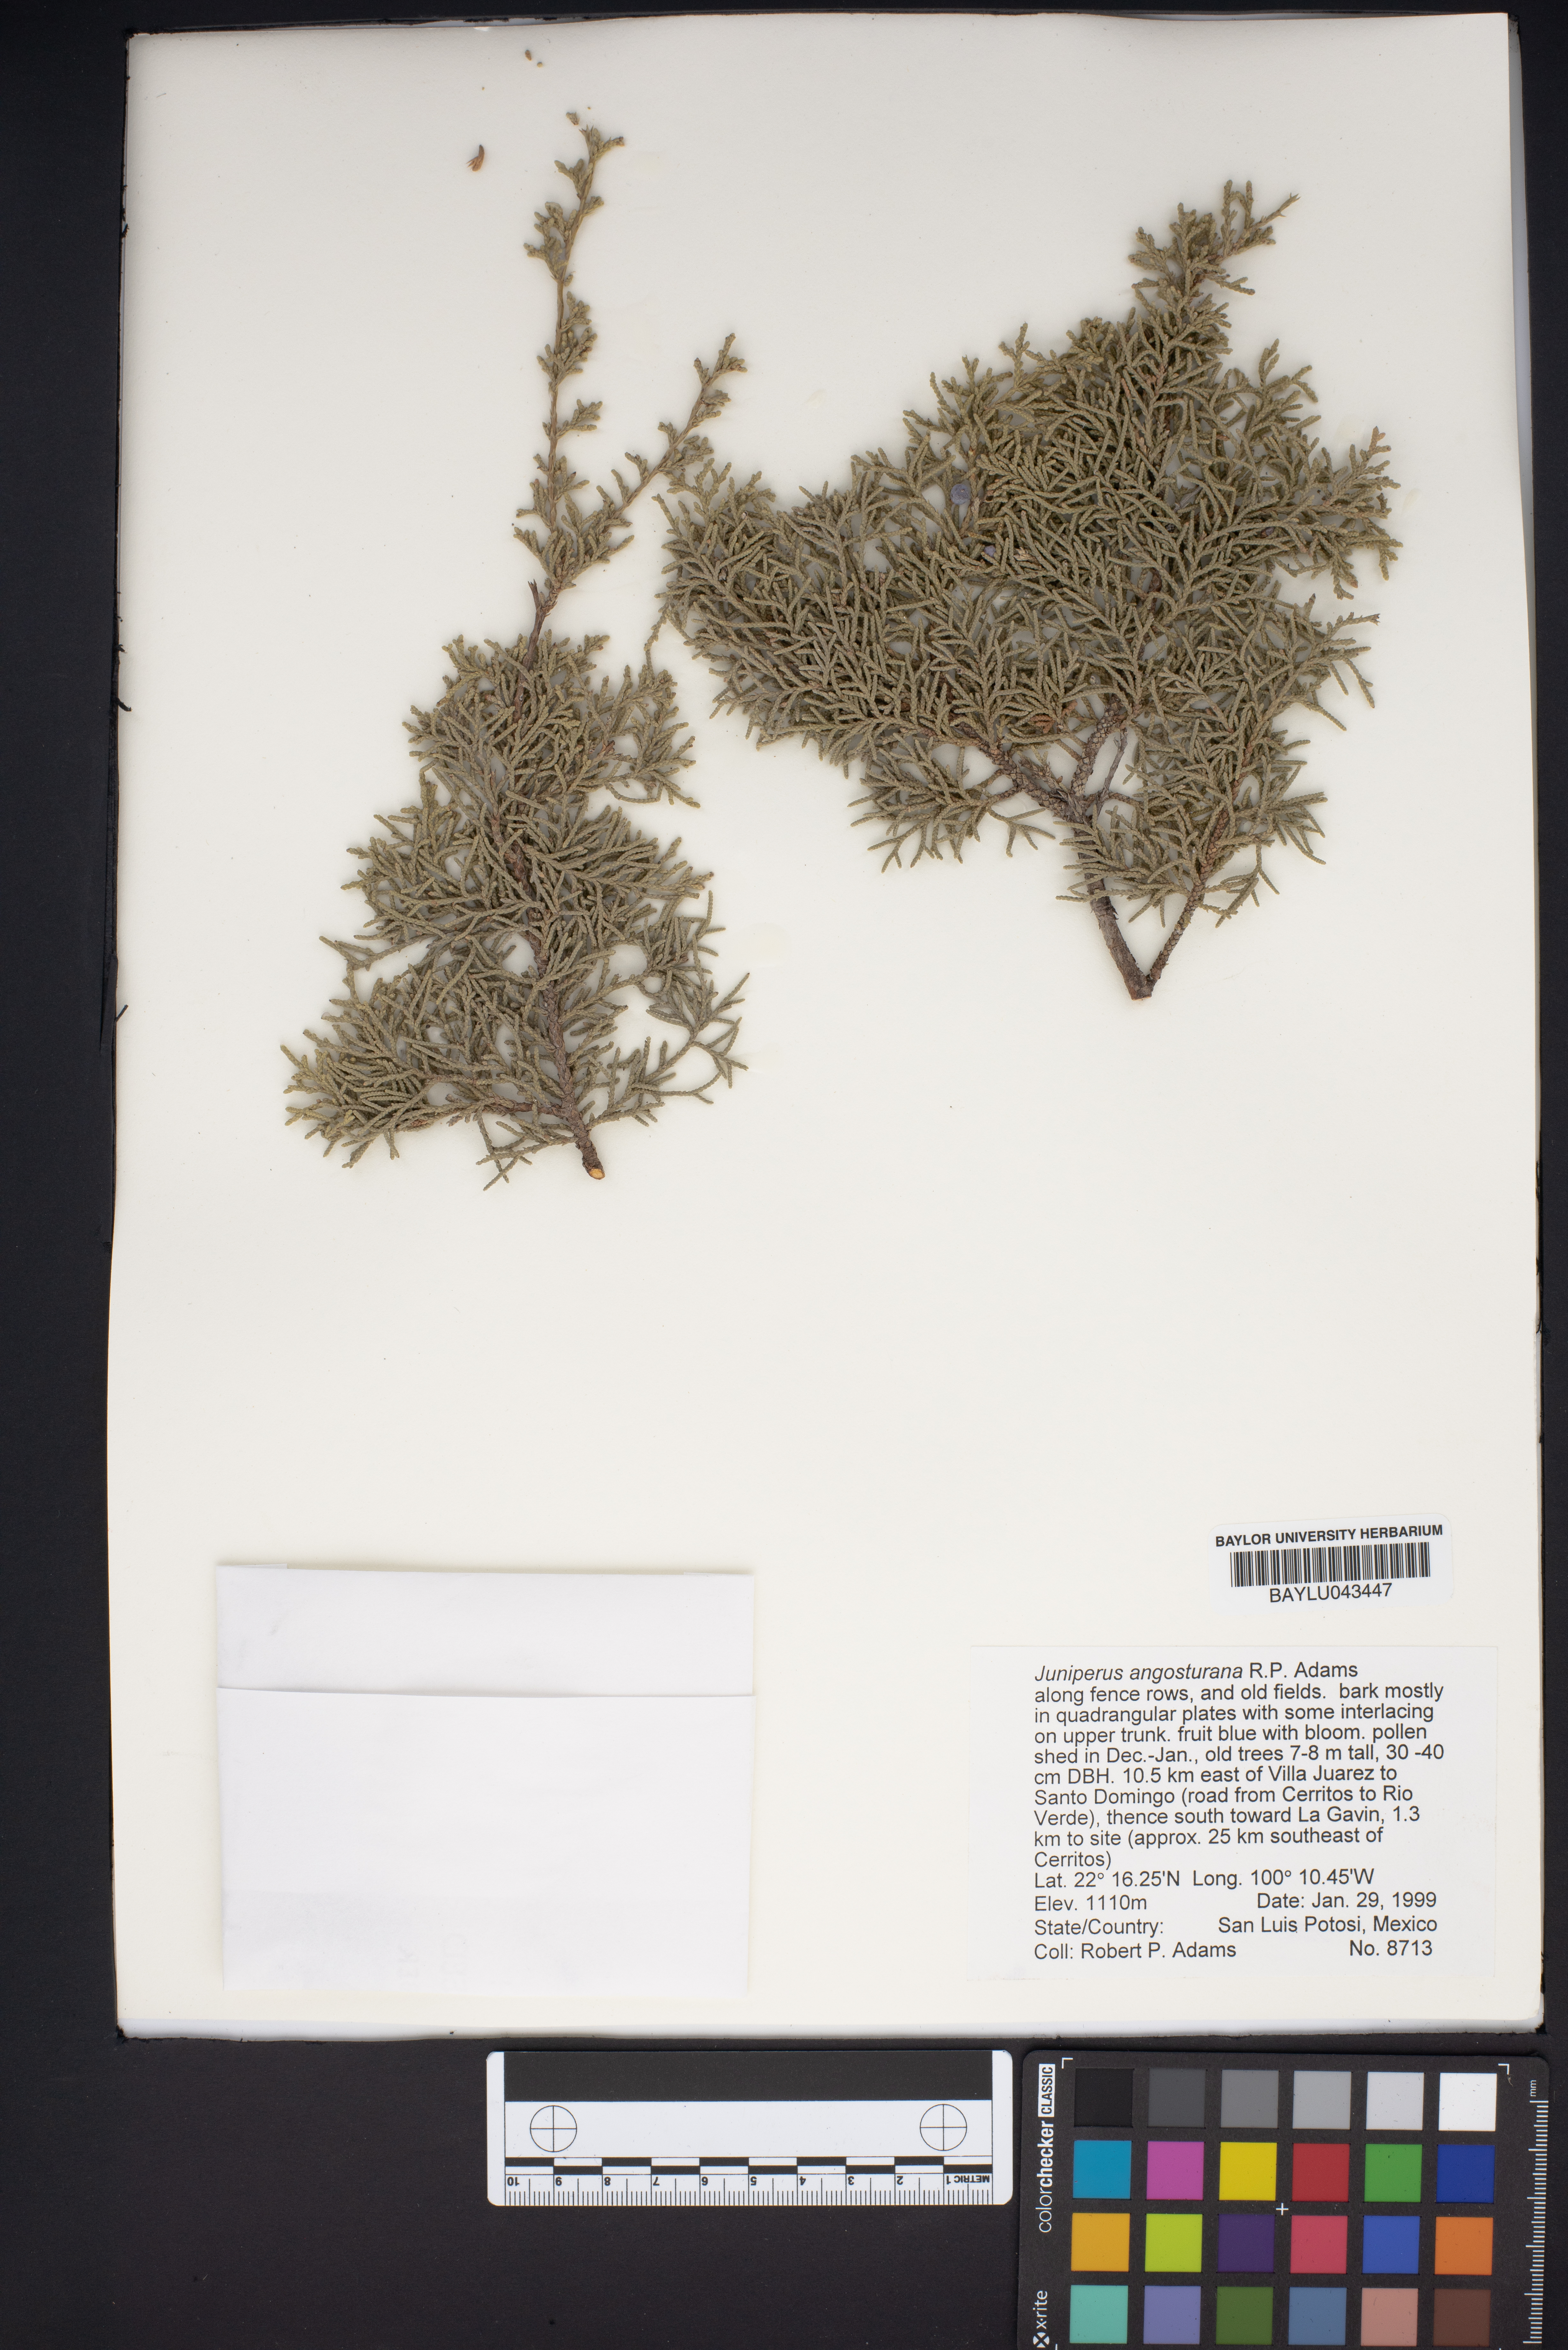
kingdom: Plantae
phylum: Tracheophyta
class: Pinopsida
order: Pinales
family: Cupressaceae
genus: Juniperus
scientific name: Juniperus angosturana
